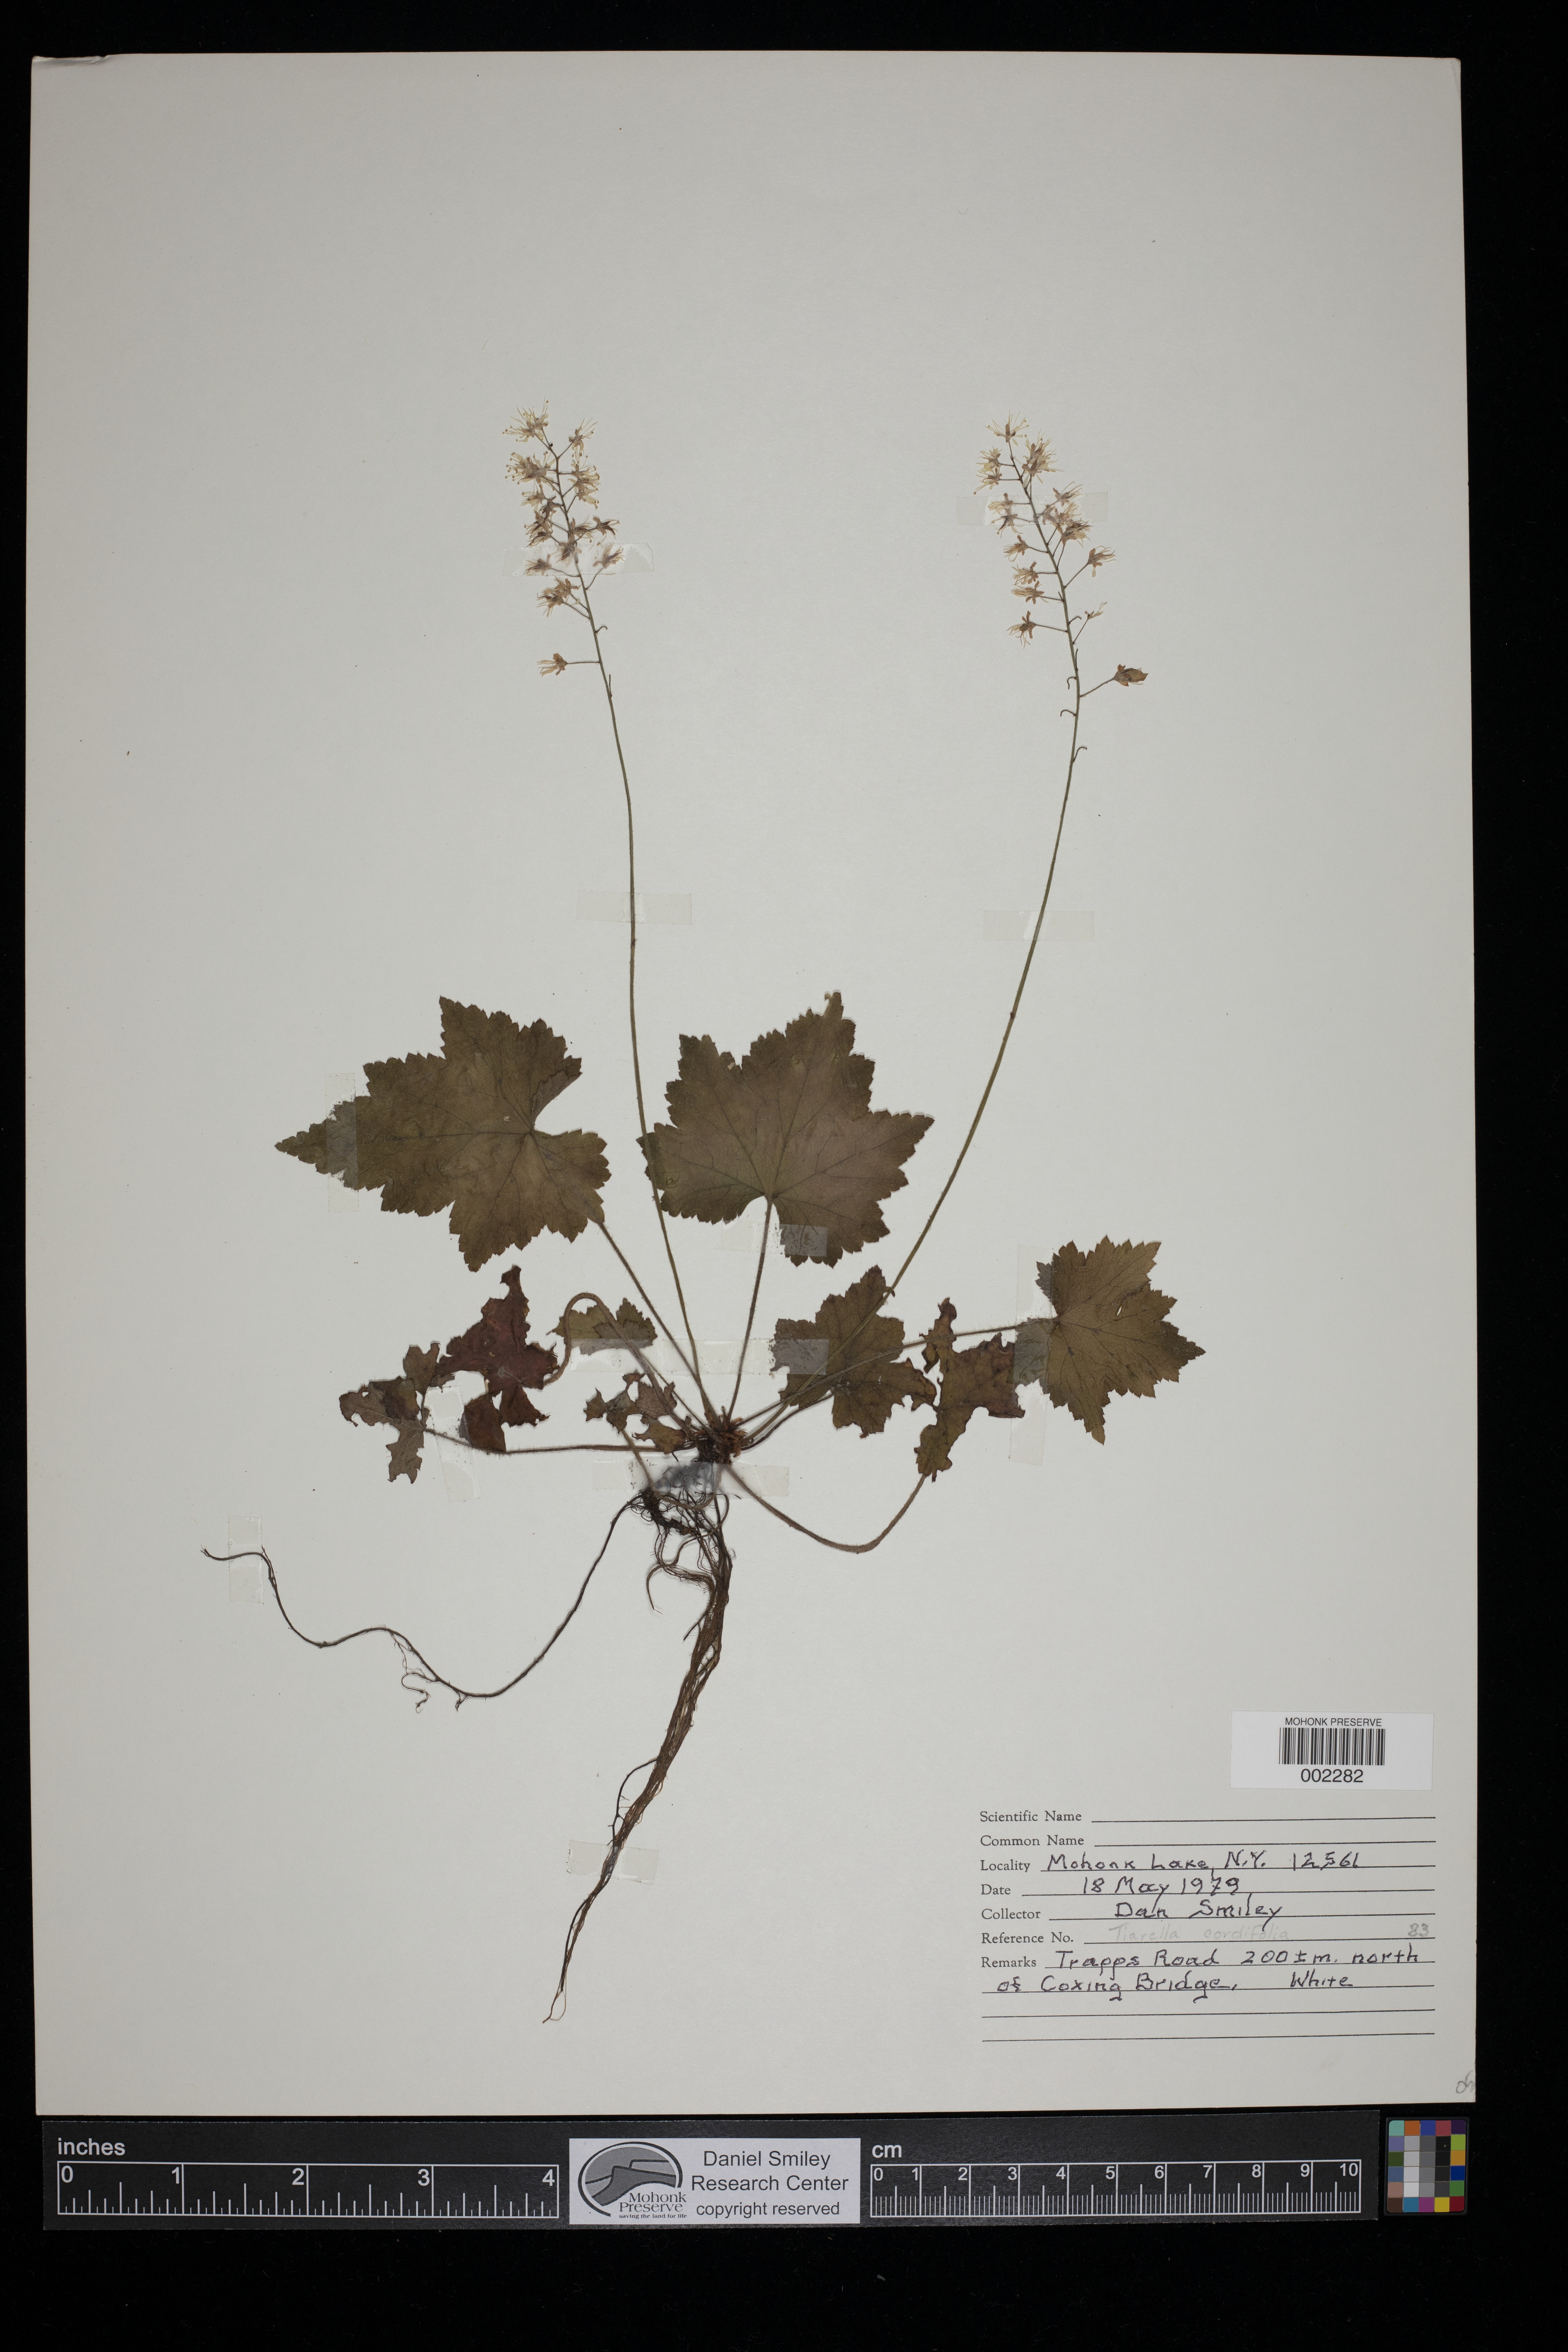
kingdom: Plantae
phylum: Tracheophyta
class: Magnoliopsida
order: Saxifragales
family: Saxifragaceae
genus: Tiarella
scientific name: Tiarella cordifolia
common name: Foamflower
